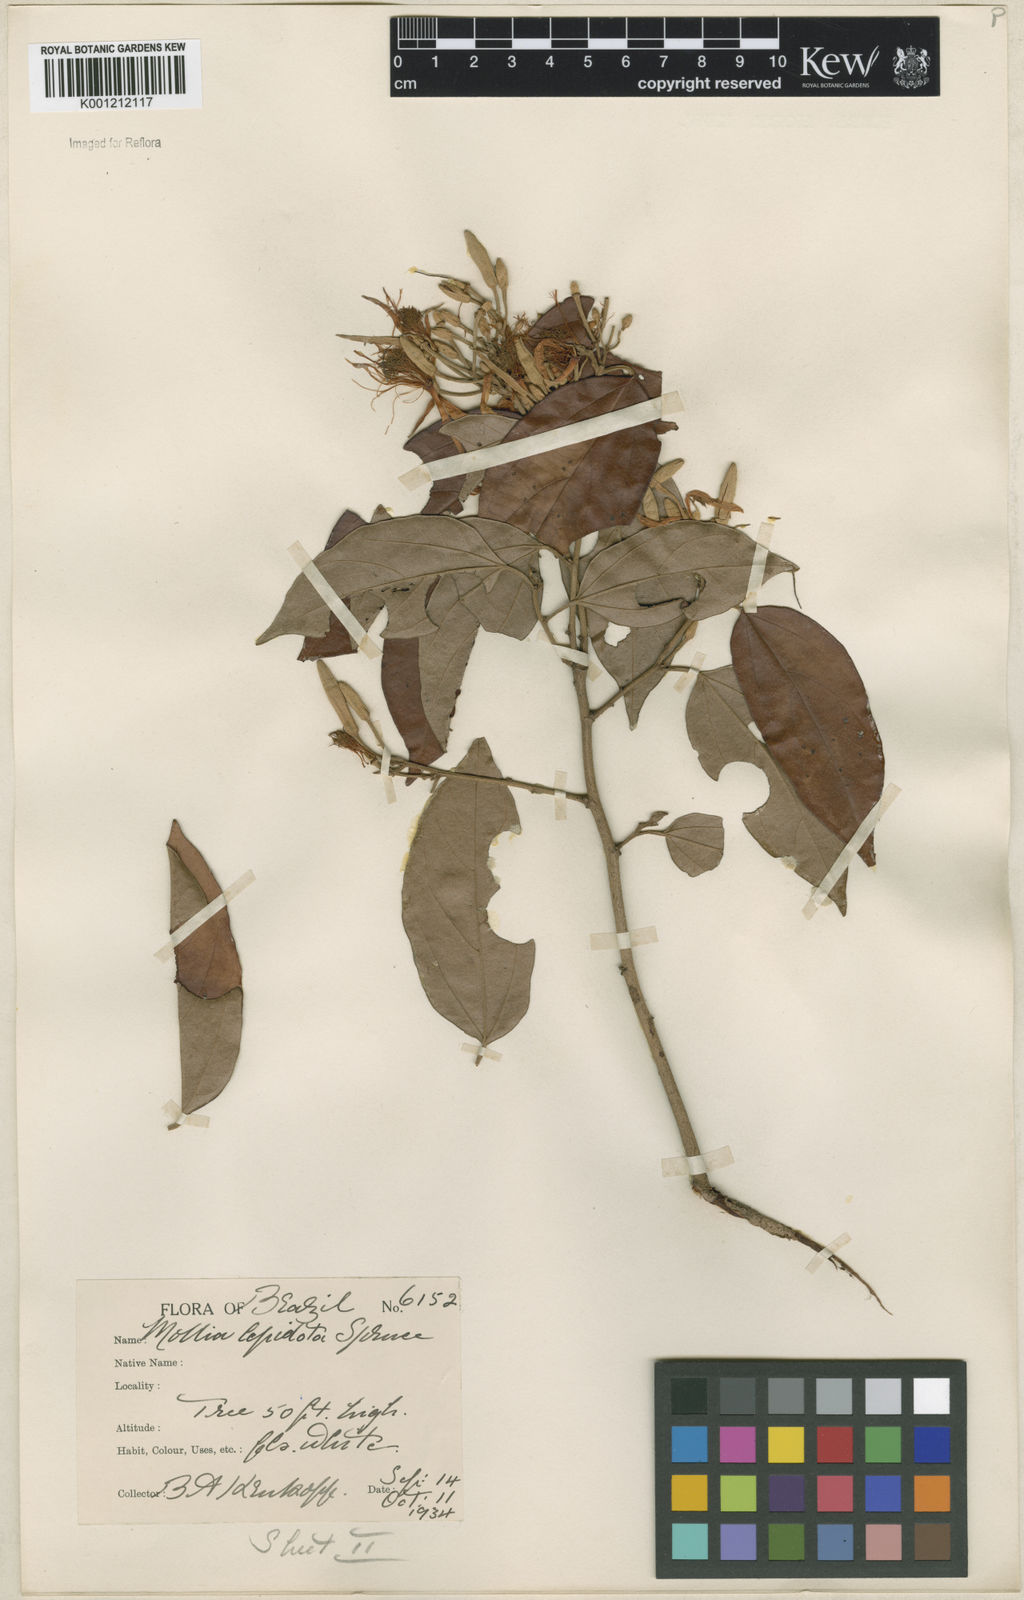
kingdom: Plantae
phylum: Tracheophyta
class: Magnoliopsida
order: Malvales
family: Malvaceae
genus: Mollia
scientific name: Mollia lepidota
